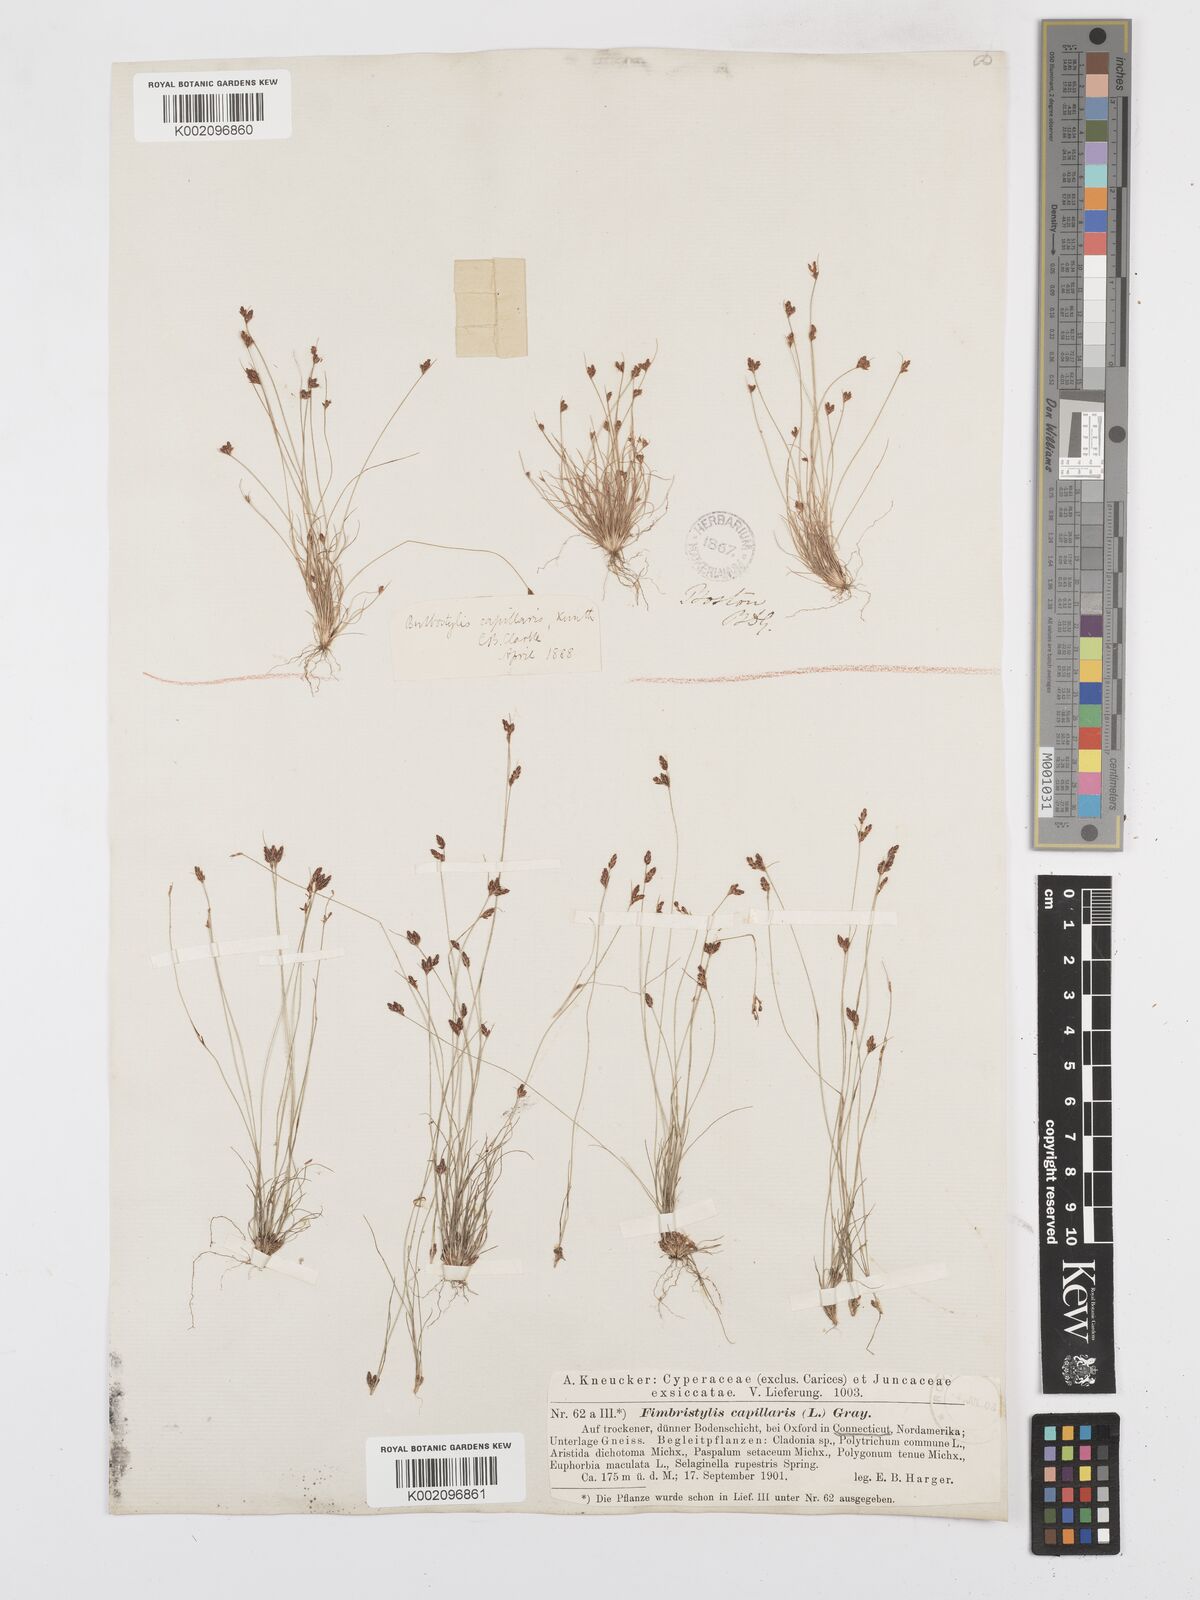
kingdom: Plantae
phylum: Tracheophyta
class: Liliopsida
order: Poales
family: Cyperaceae
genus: Bulbostylis
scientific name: Bulbostylis capillaris
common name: Densetuft hairsedge
